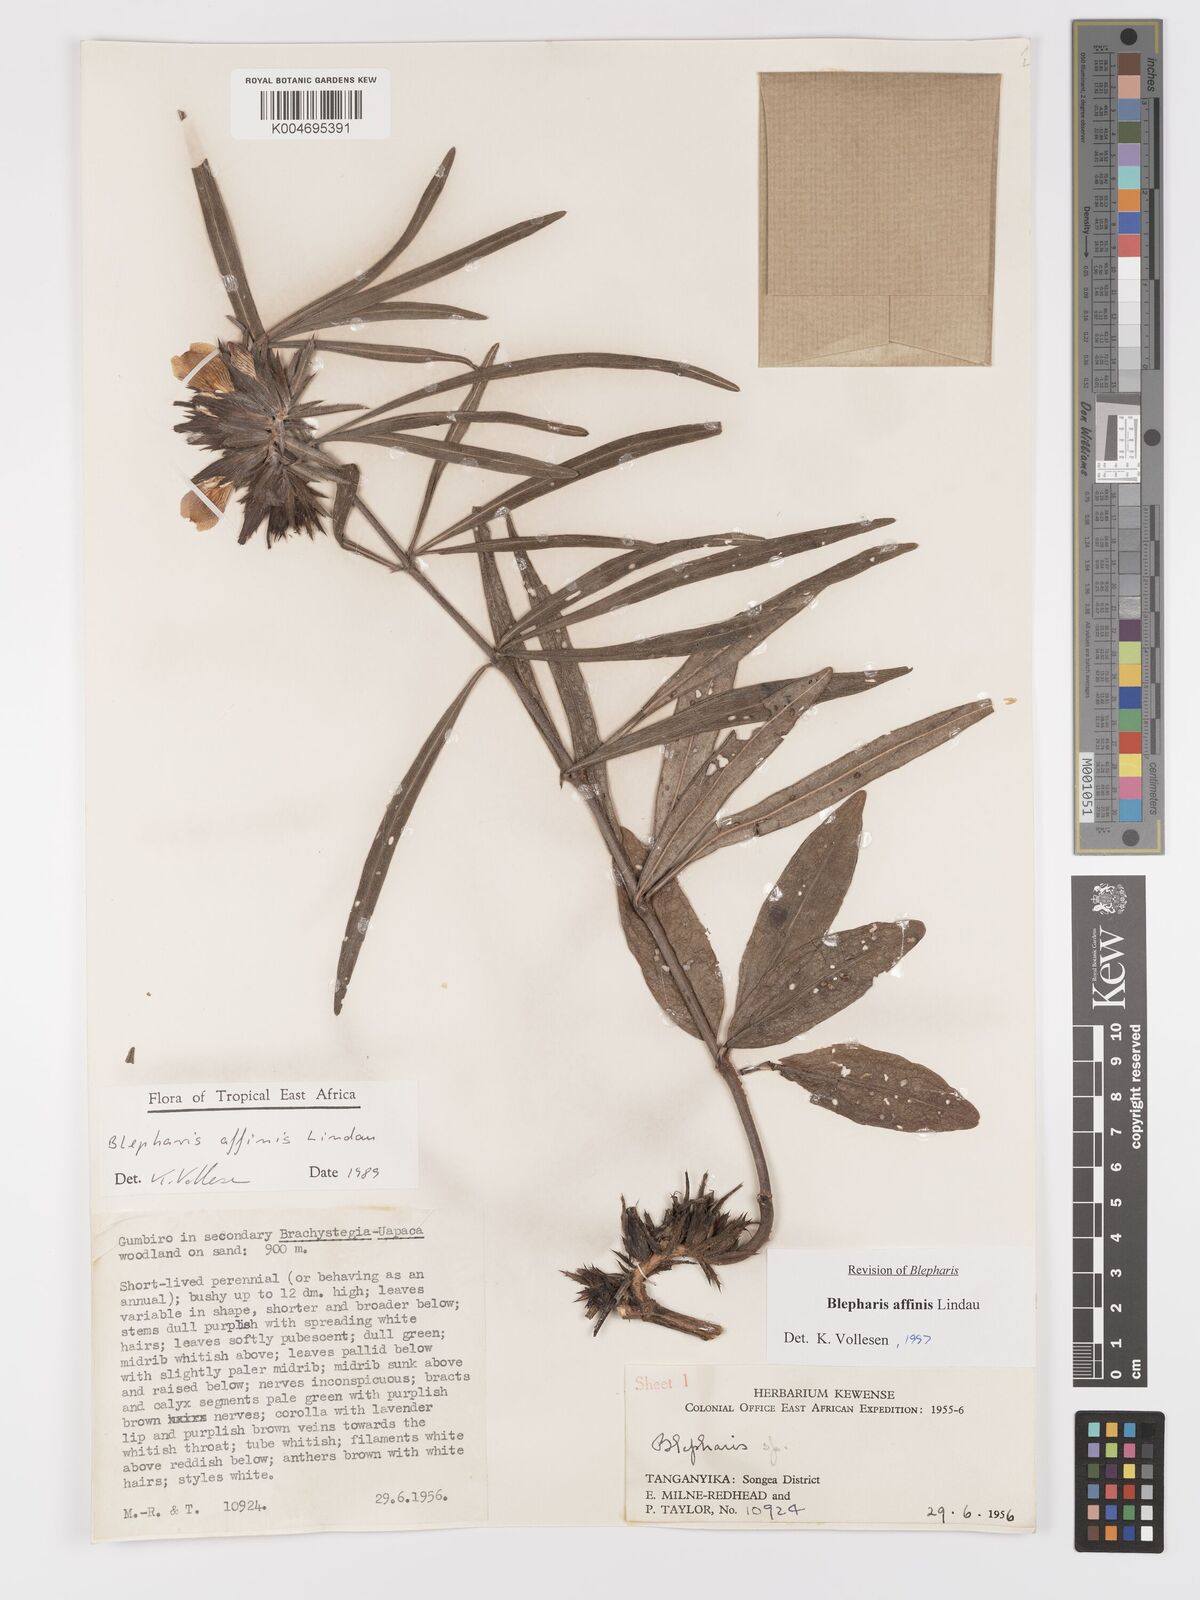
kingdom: Plantae
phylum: Tracheophyta
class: Magnoliopsida
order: Lamiales
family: Acanthaceae
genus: Blepharis
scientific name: Blepharis affinis
